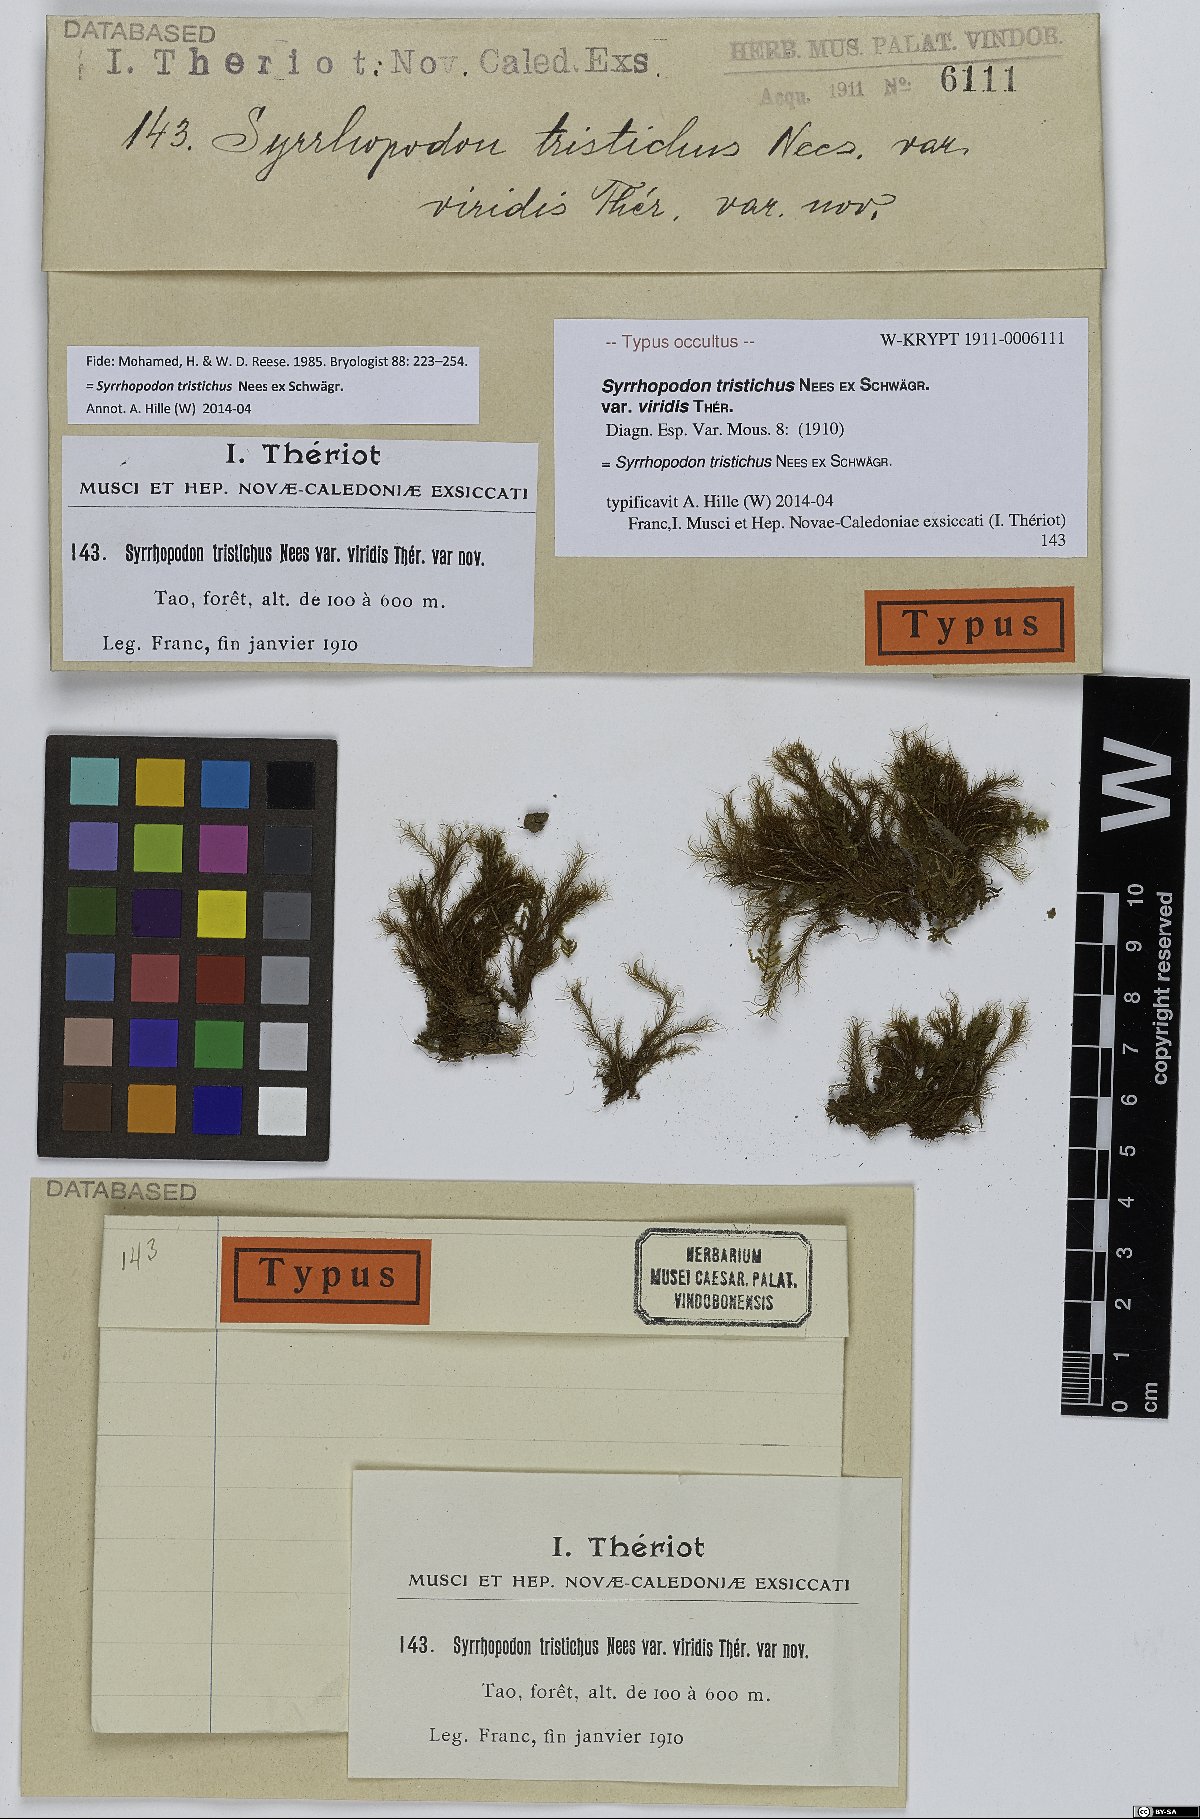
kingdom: Plantae
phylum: Bryophyta
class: Bryopsida
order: Dicranales
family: Calymperaceae
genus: Syrrhopodon
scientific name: Syrrhopodon tristichus
